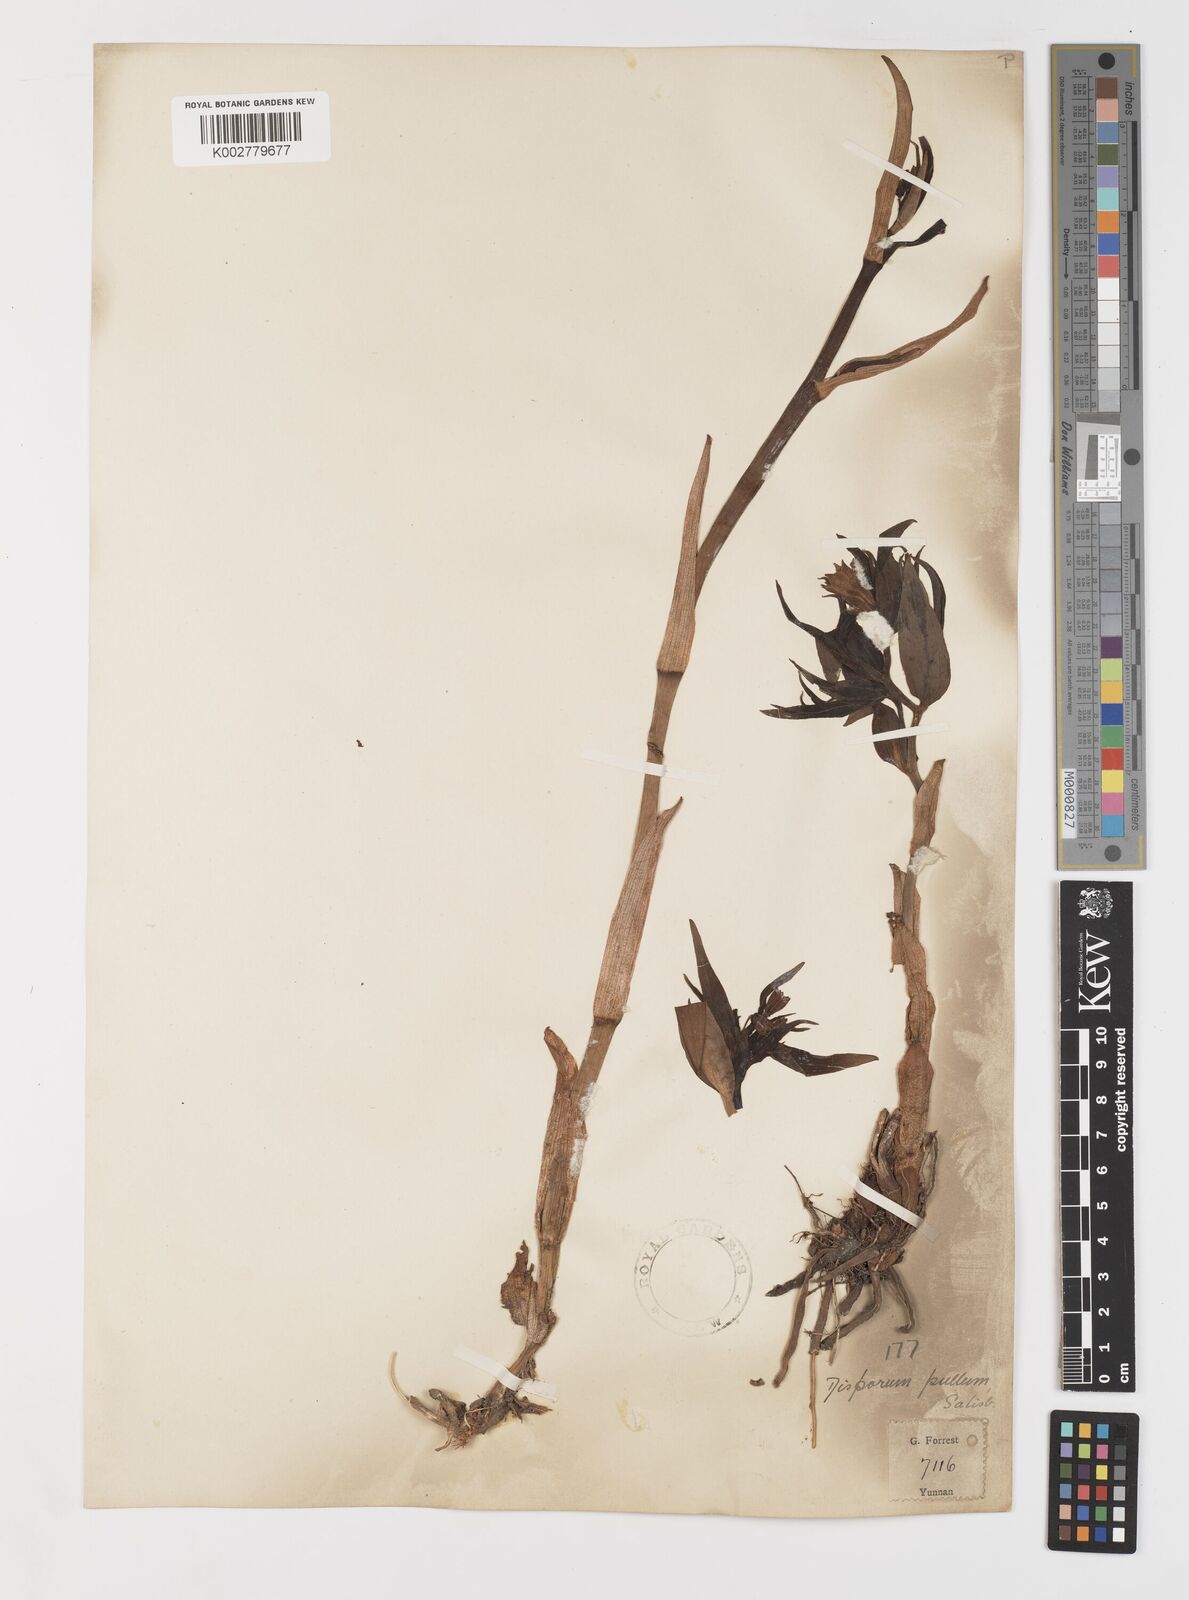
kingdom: Plantae
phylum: Tracheophyta
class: Liliopsida
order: Liliales
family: Colchicaceae
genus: Disporum
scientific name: Disporum cantoniense
